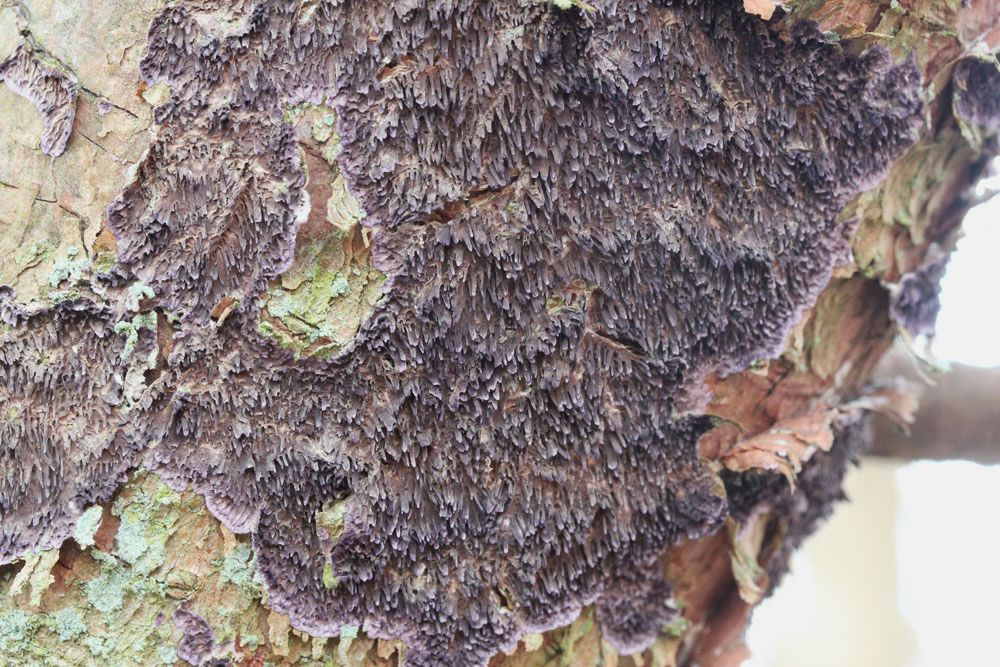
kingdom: Fungi
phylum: Basidiomycota
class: Agaricomycetes
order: Hymenochaetales
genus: Trichaptum
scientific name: Trichaptum fuscoviolaceum
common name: tandet violporesvamp
